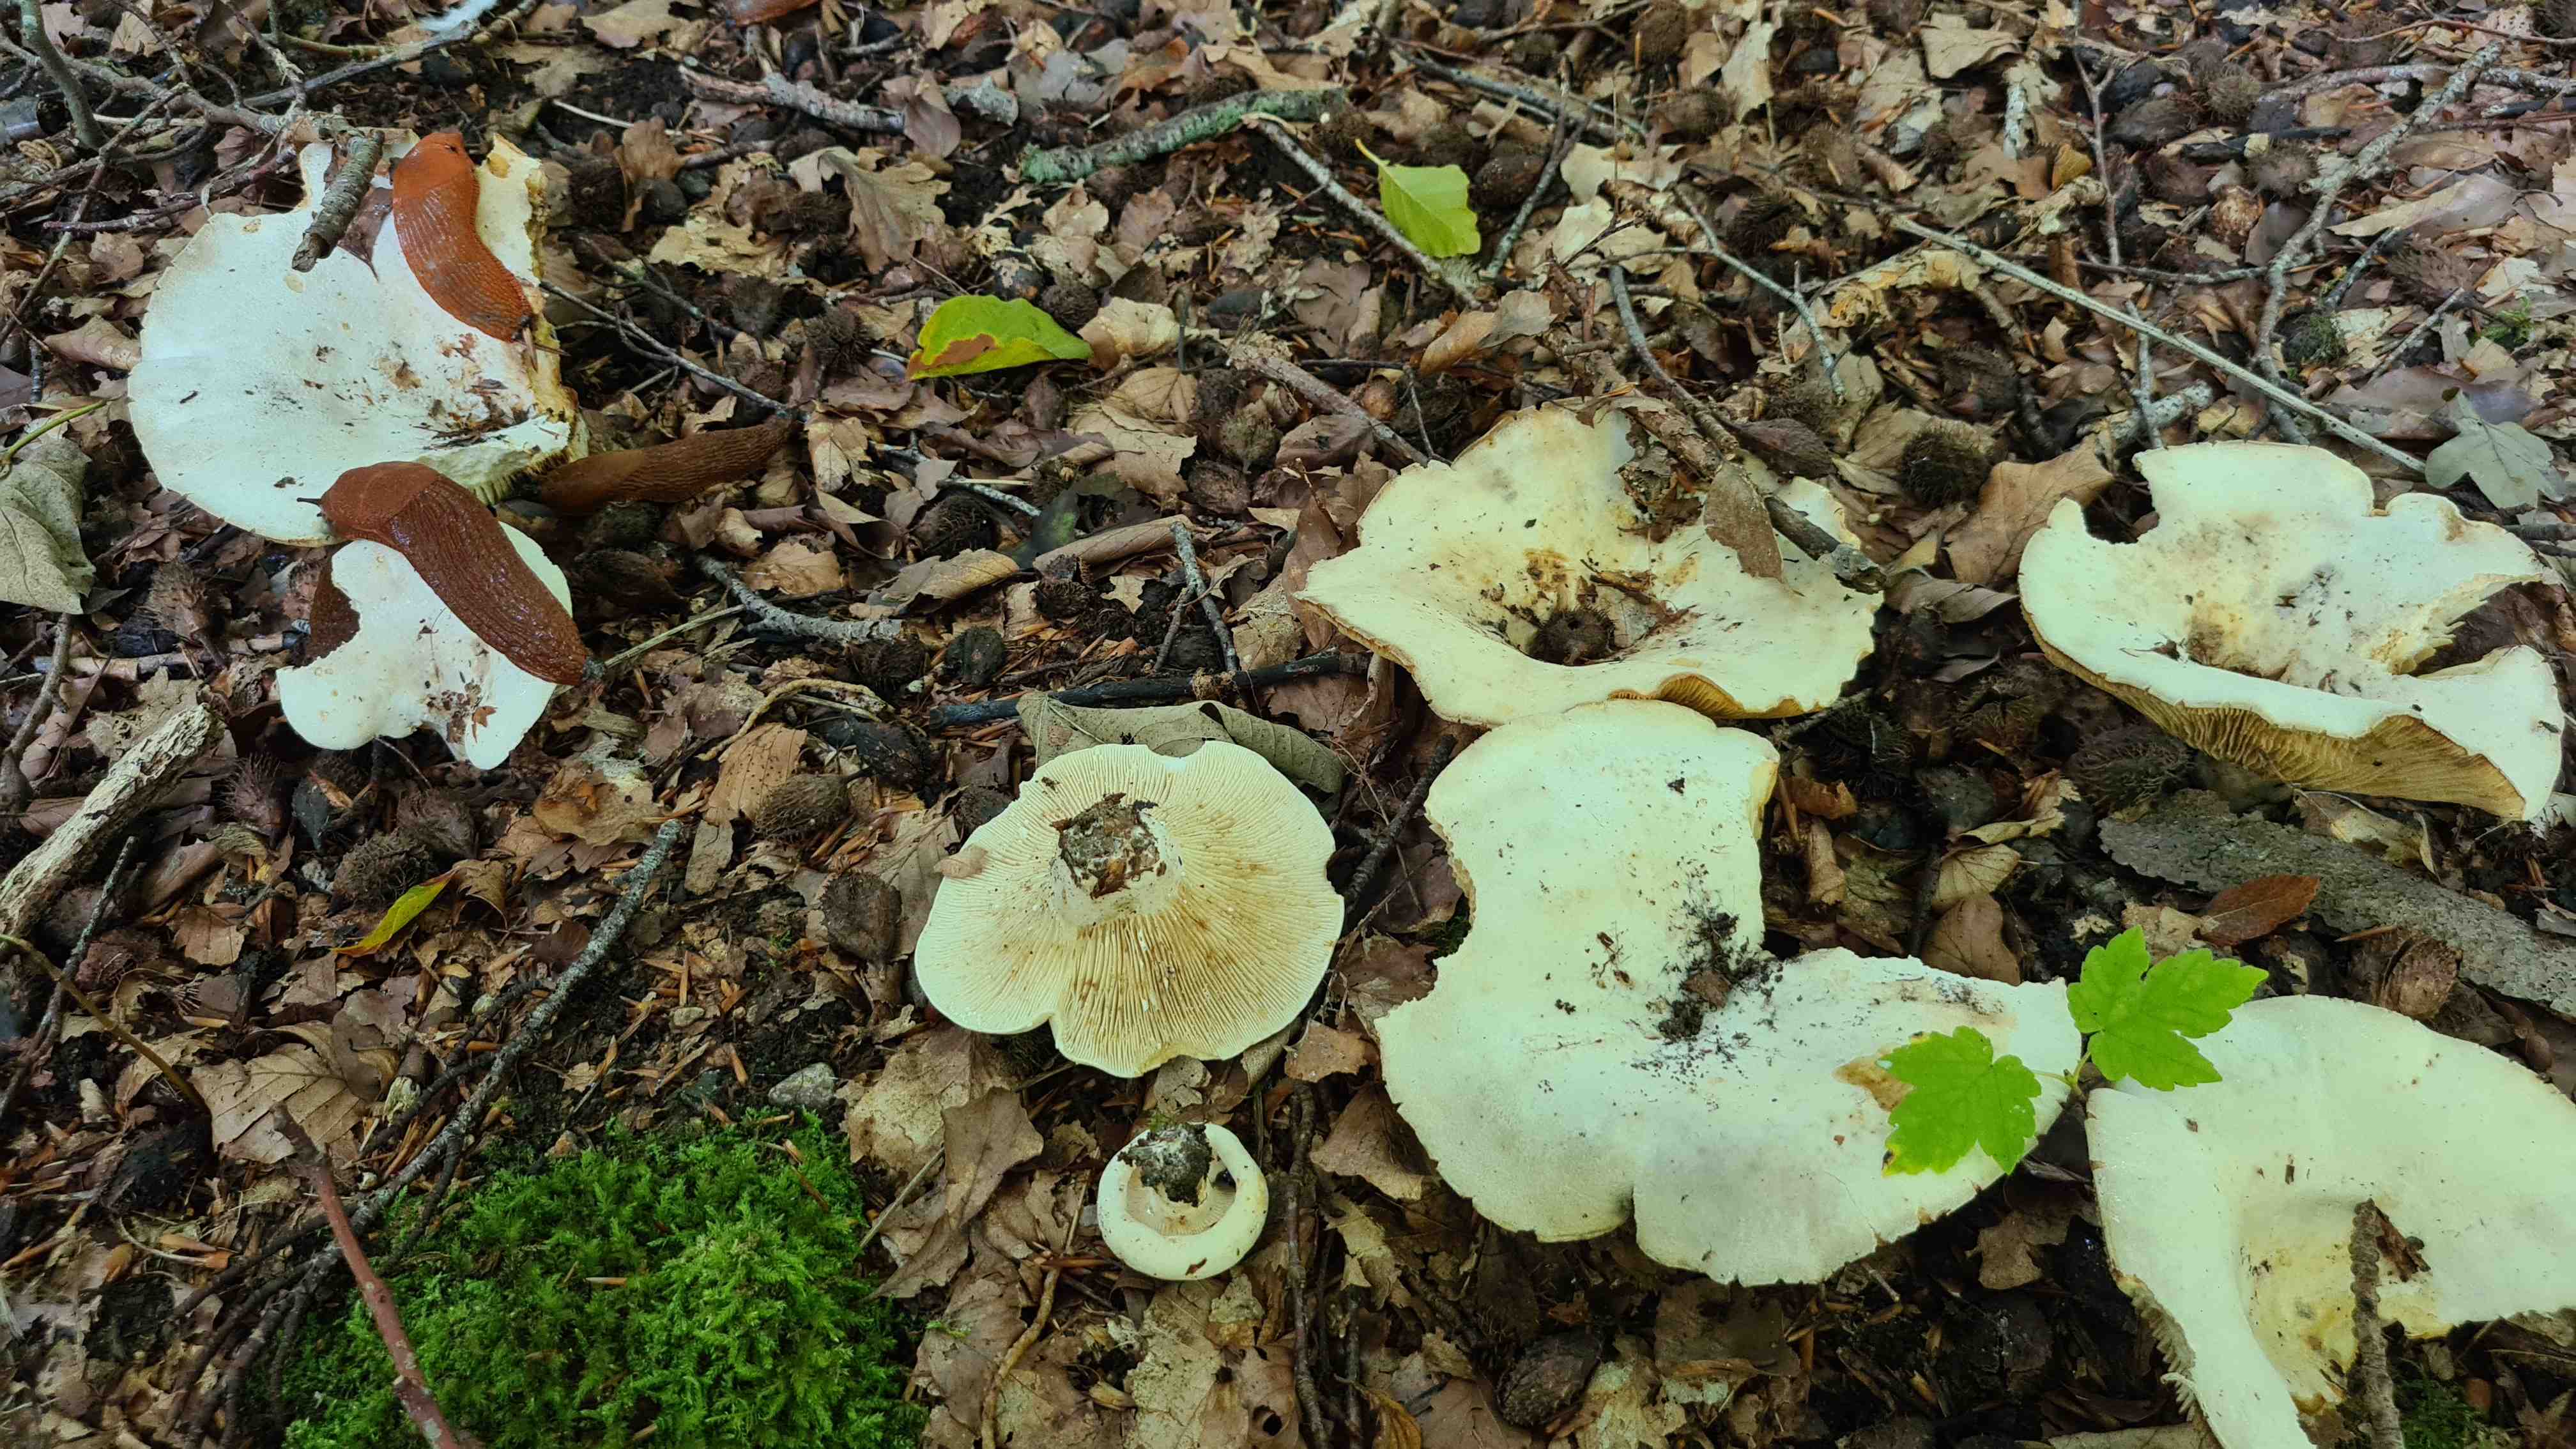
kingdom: Fungi
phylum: Basidiomycota
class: Agaricomycetes
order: Russulales
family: Russulaceae
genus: Lactifluus
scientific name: Lactifluus vellereus
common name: hvidfiltet mælkehat
